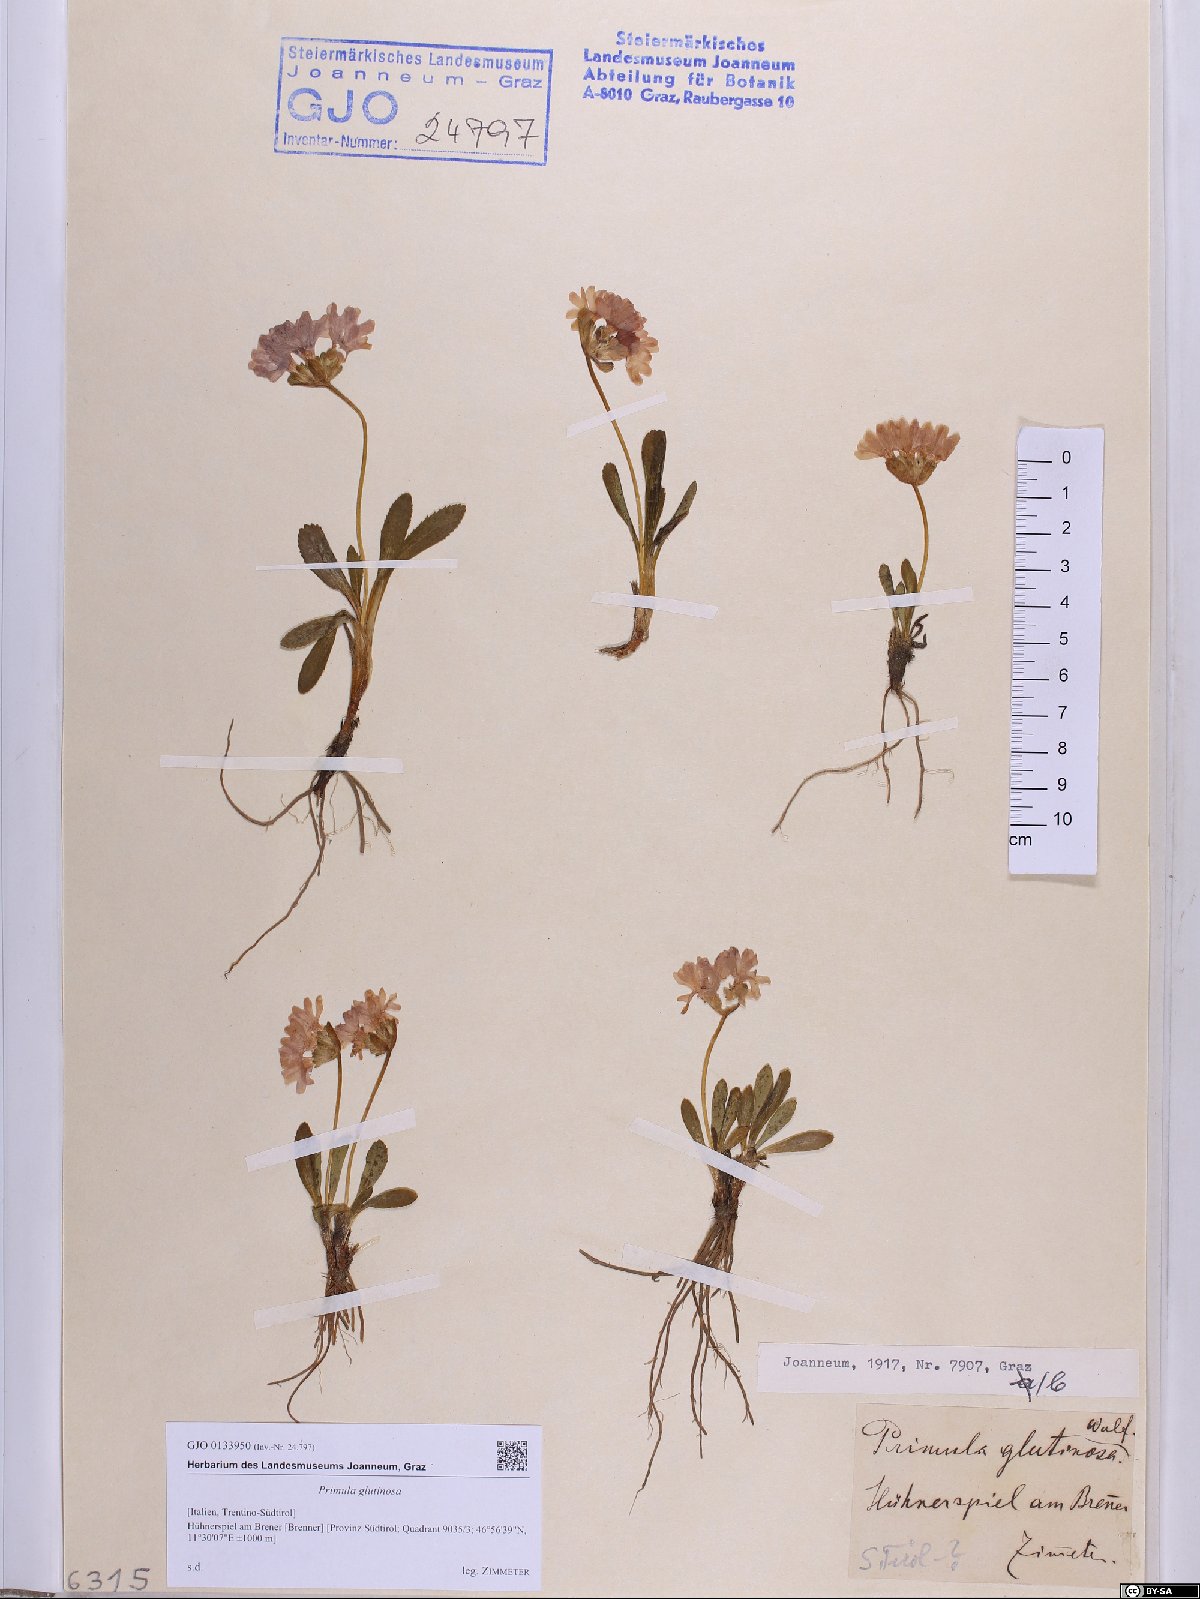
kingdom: Plantae
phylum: Tracheophyta
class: Magnoliopsida
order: Ericales
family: Primulaceae
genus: Primula
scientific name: Primula glutinosa
